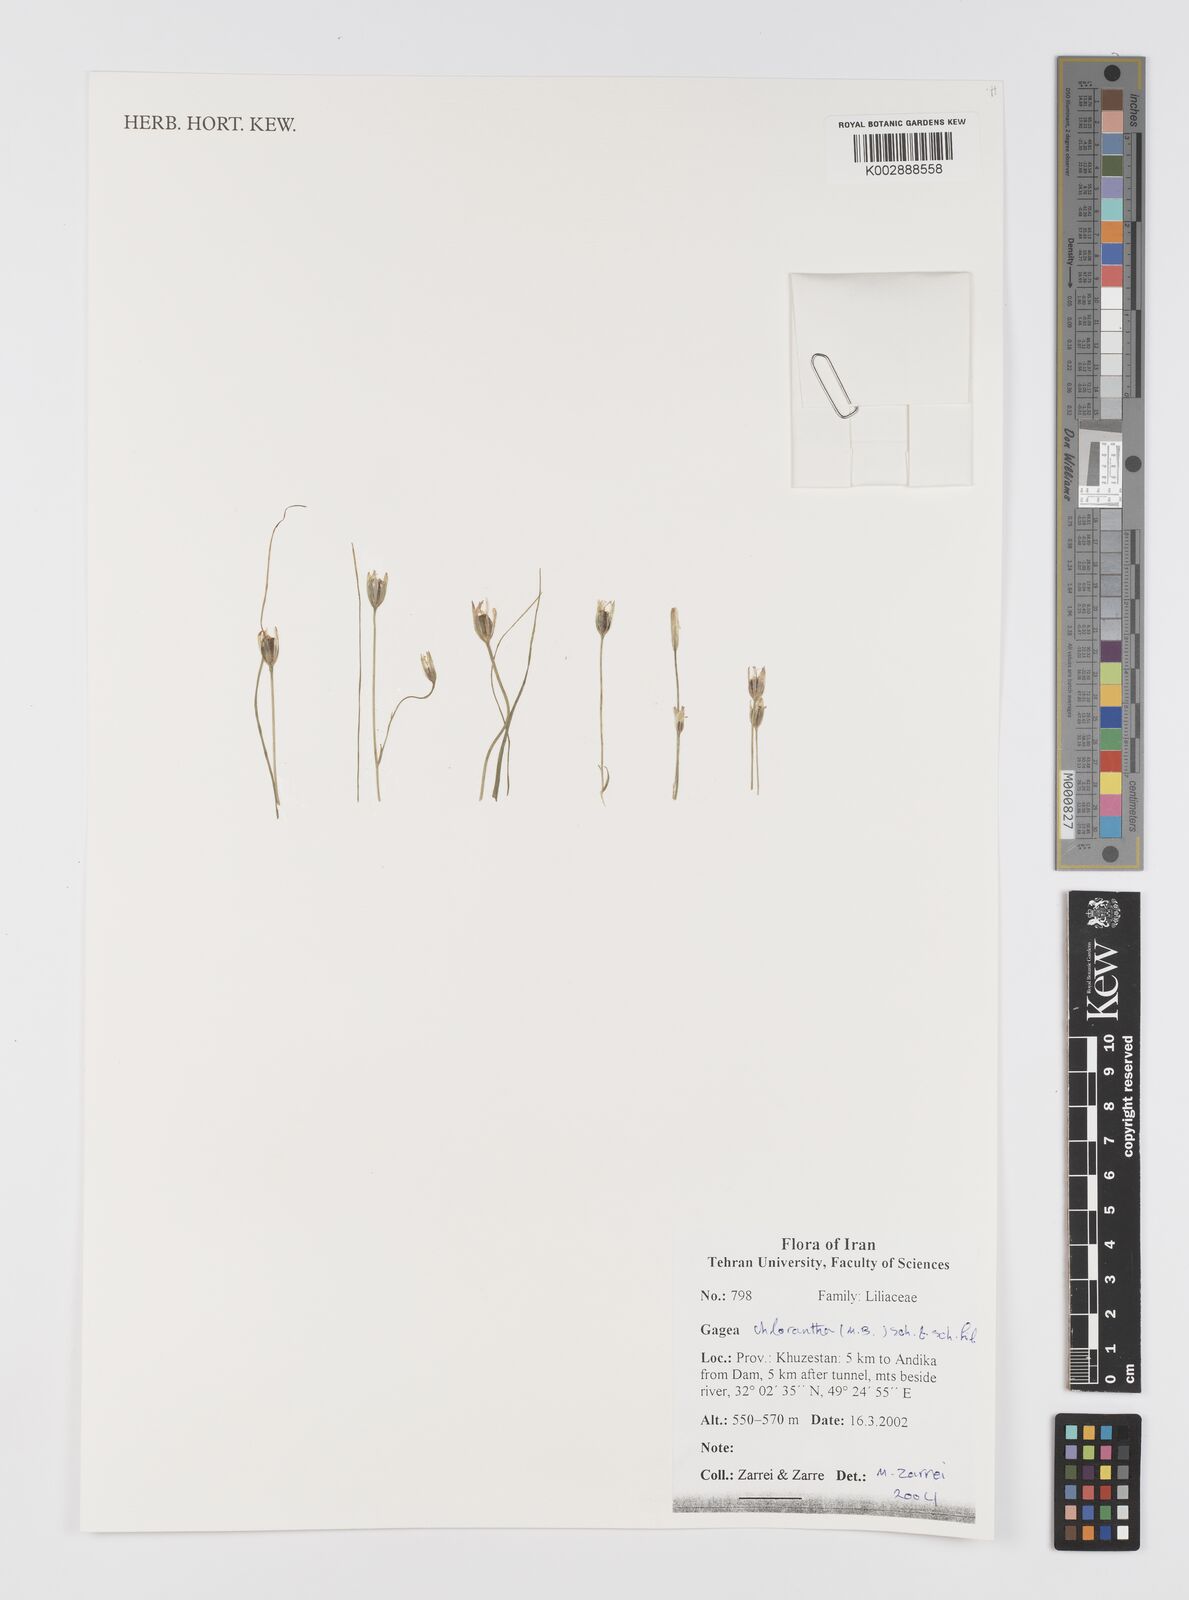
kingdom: Plantae
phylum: Tracheophyta
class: Liliopsida
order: Liliales
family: Liliaceae
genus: Gagea
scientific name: Gagea chlorantha
